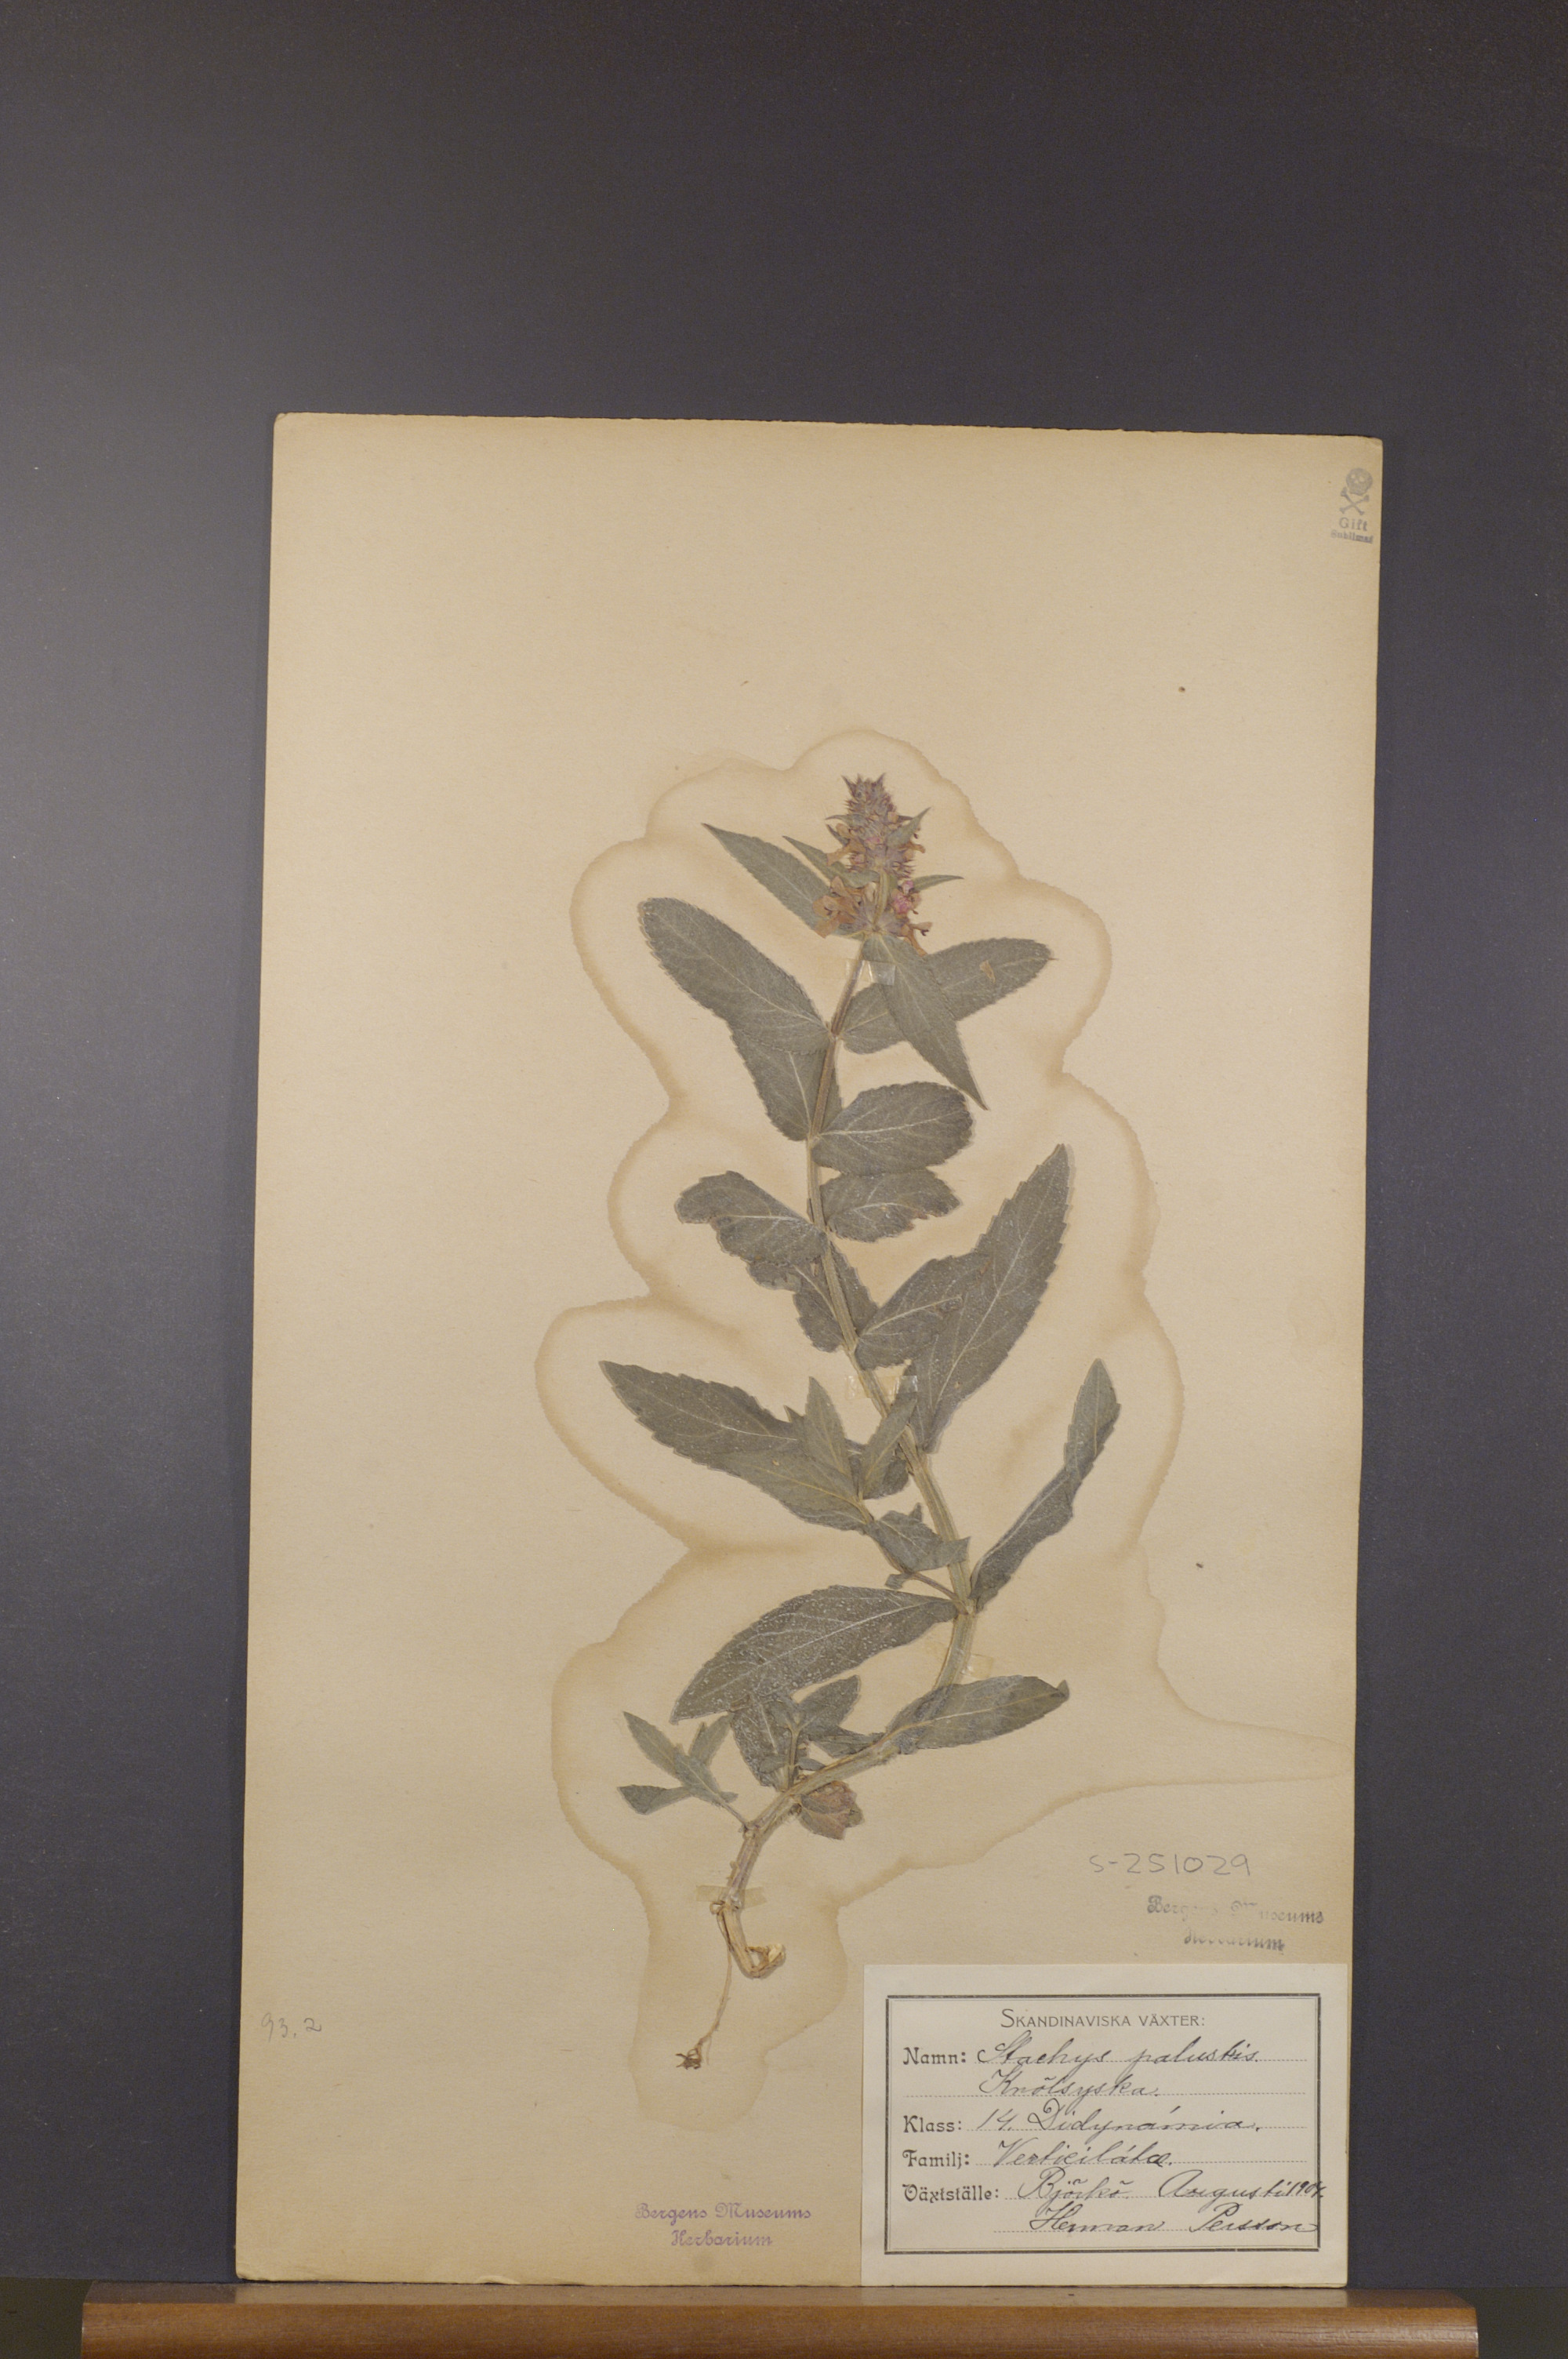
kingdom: Plantae
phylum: Tracheophyta
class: Magnoliopsida
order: Lamiales
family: Lamiaceae
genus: Stachys
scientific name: Stachys palustris
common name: Marsh woundwort
